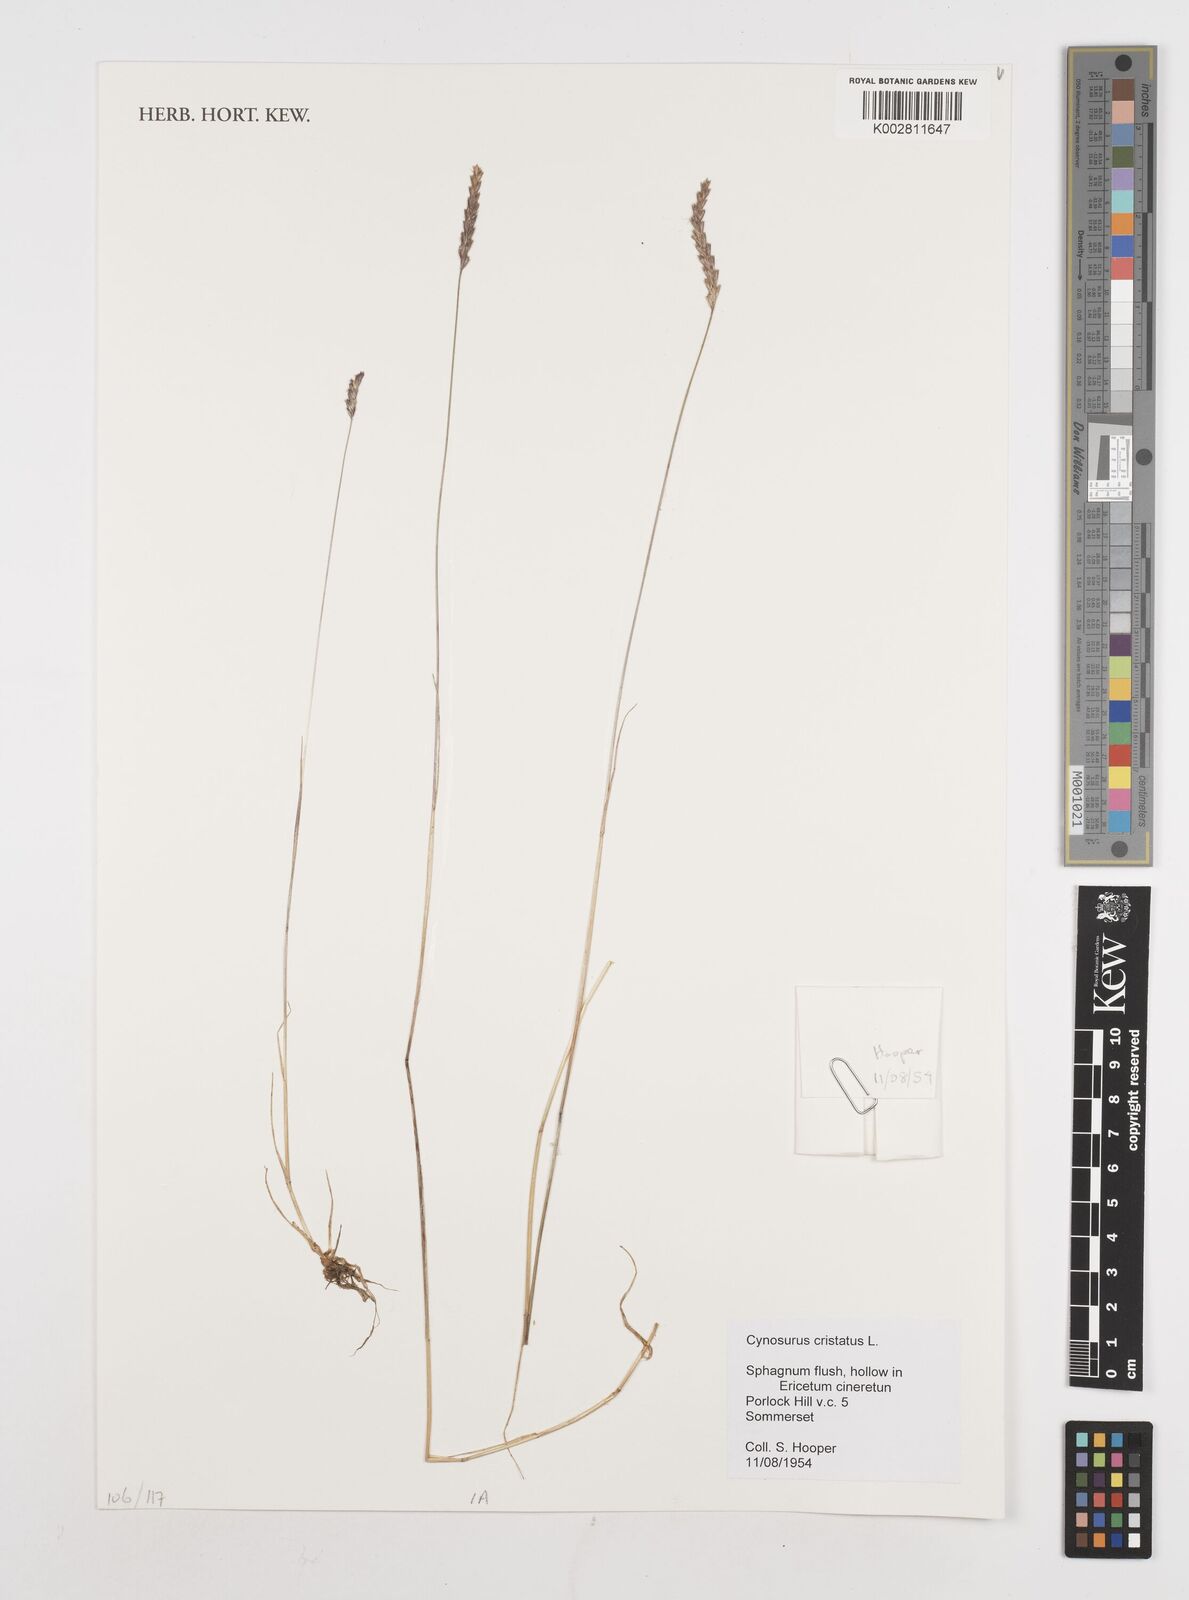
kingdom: Plantae
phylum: Tracheophyta
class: Liliopsida
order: Poales
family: Poaceae
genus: Cynosurus
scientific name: Cynosurus echinatus
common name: Rough dog's-tail
